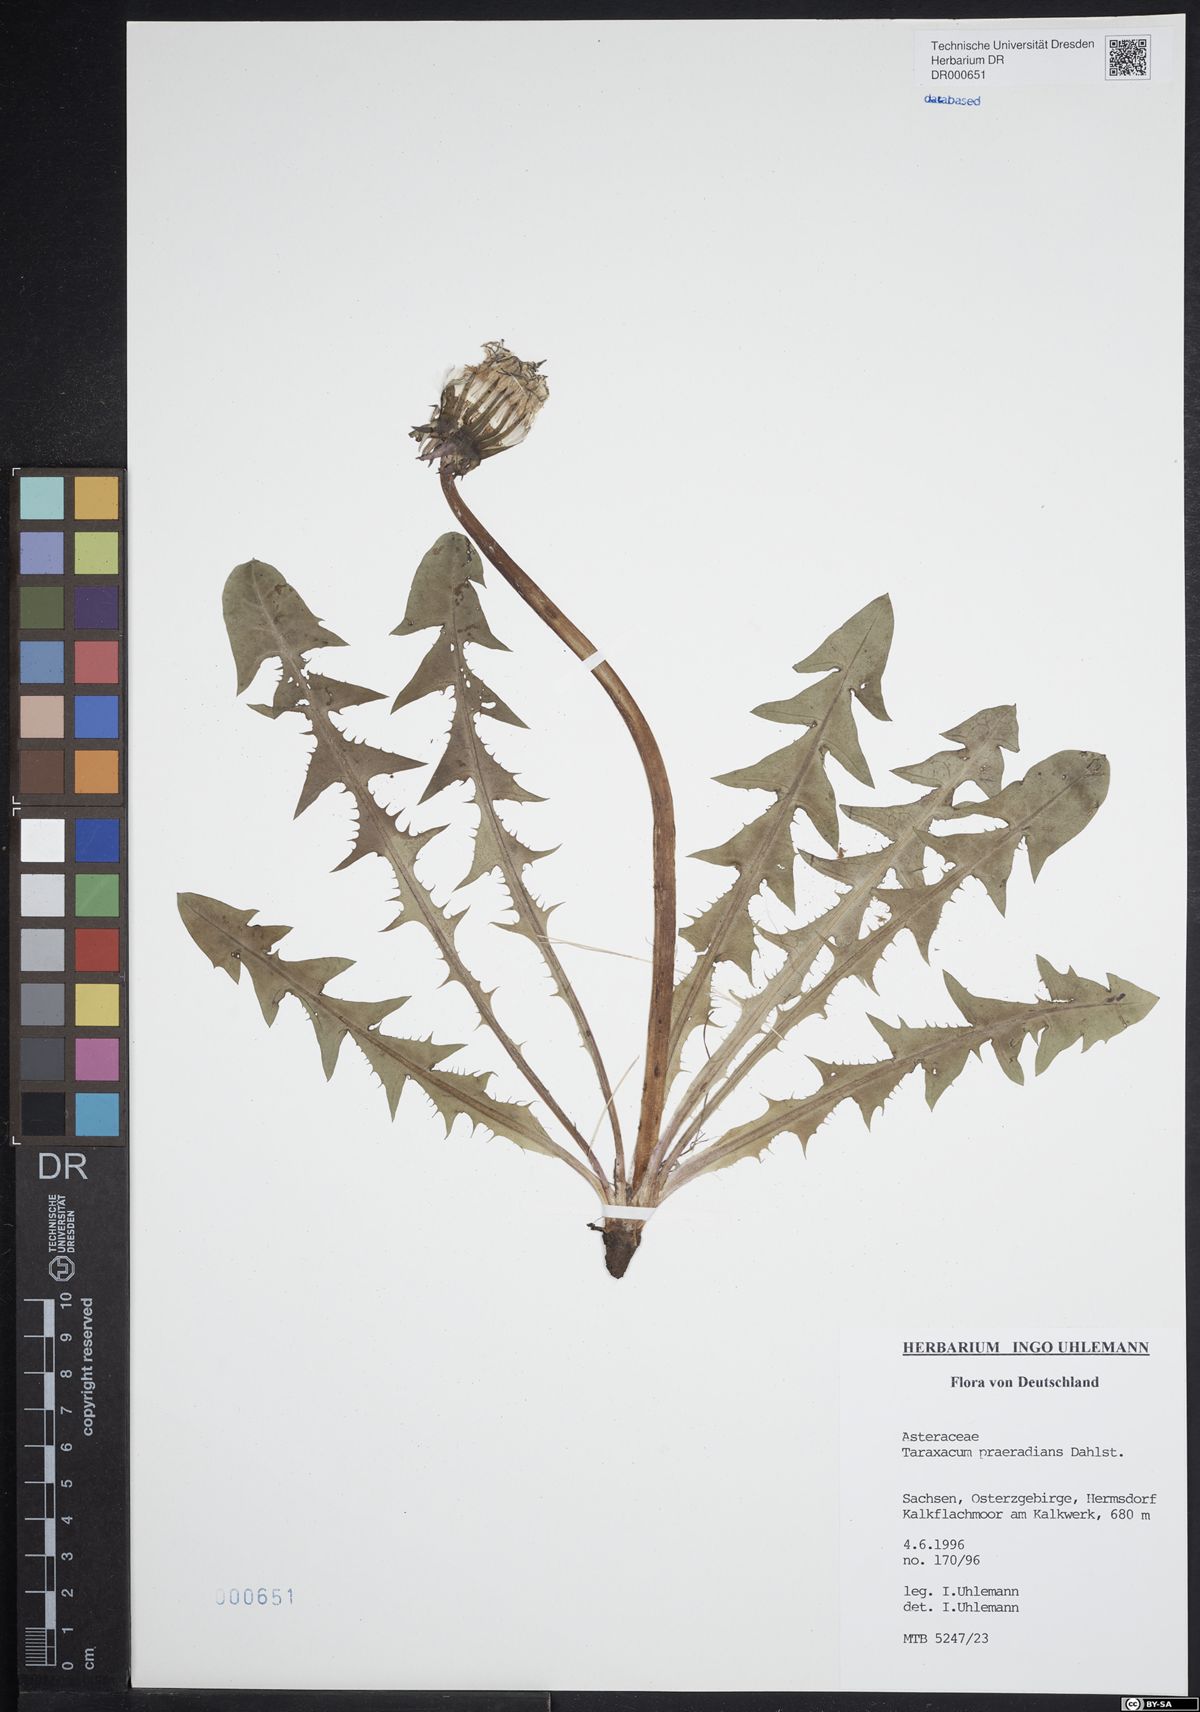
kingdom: Plantae
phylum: Tracheophyta
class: Magnoliopsida
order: Asterales
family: Asteraceae
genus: Taraxacum
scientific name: Taraxacum praeradians
